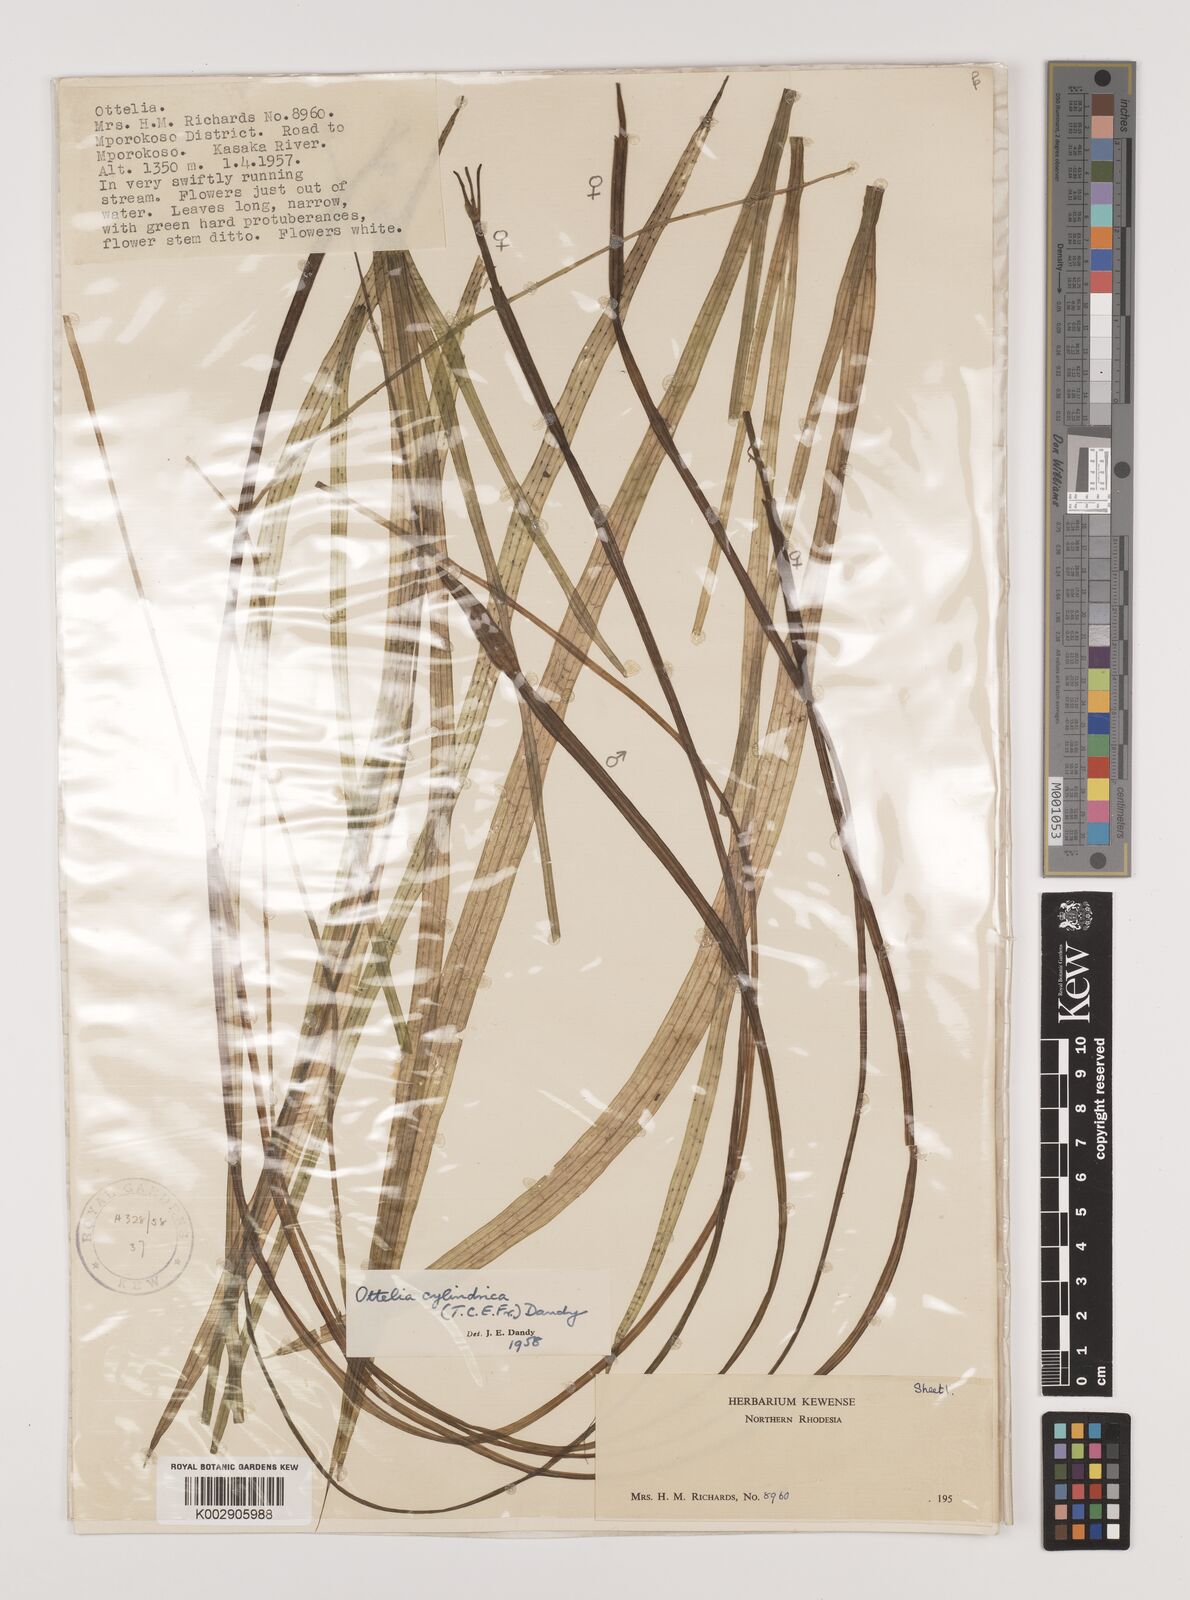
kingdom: Plantae
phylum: Tracheophyta
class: Liliopsida
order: Alismatales
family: Hydrocharitaceae
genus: Ottelia
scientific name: Ottelia cylindrica
